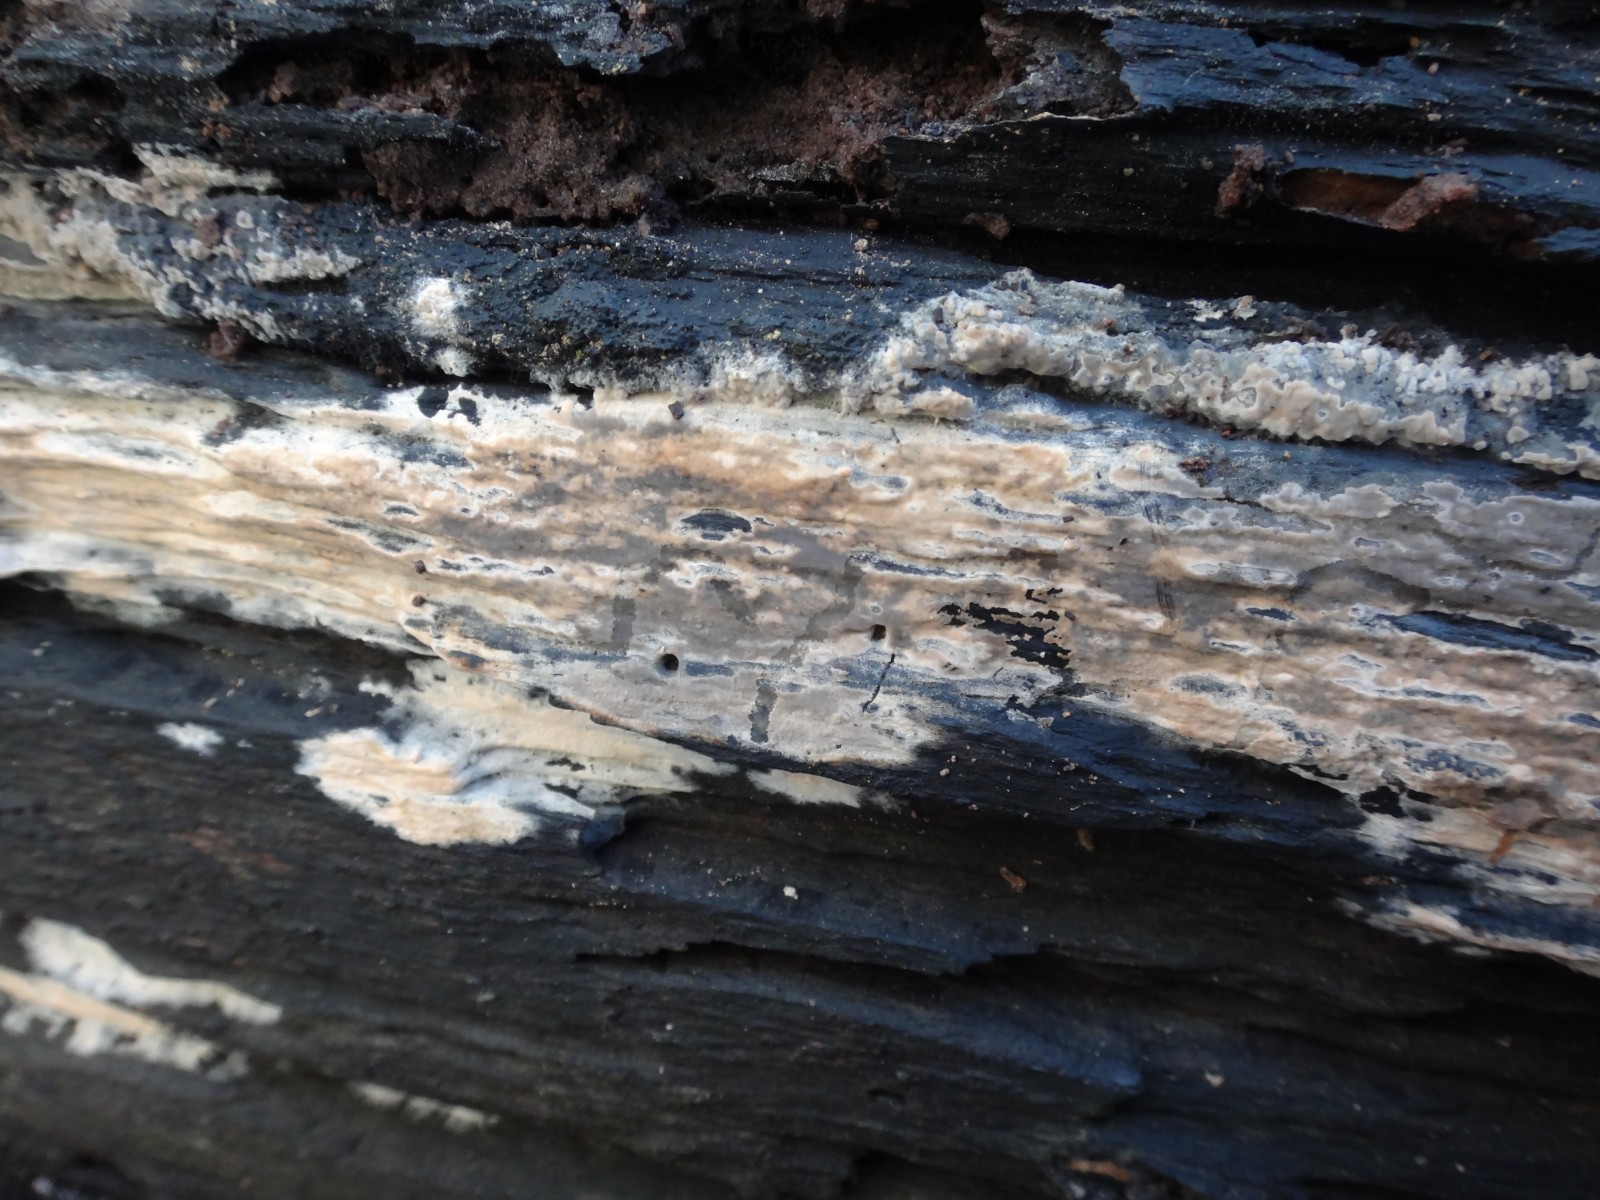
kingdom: Fungi
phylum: Basidiomycota
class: Agaricomycetes
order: Polyporales
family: Meruliaceae
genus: Cytidiella
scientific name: Cytidiella albida
